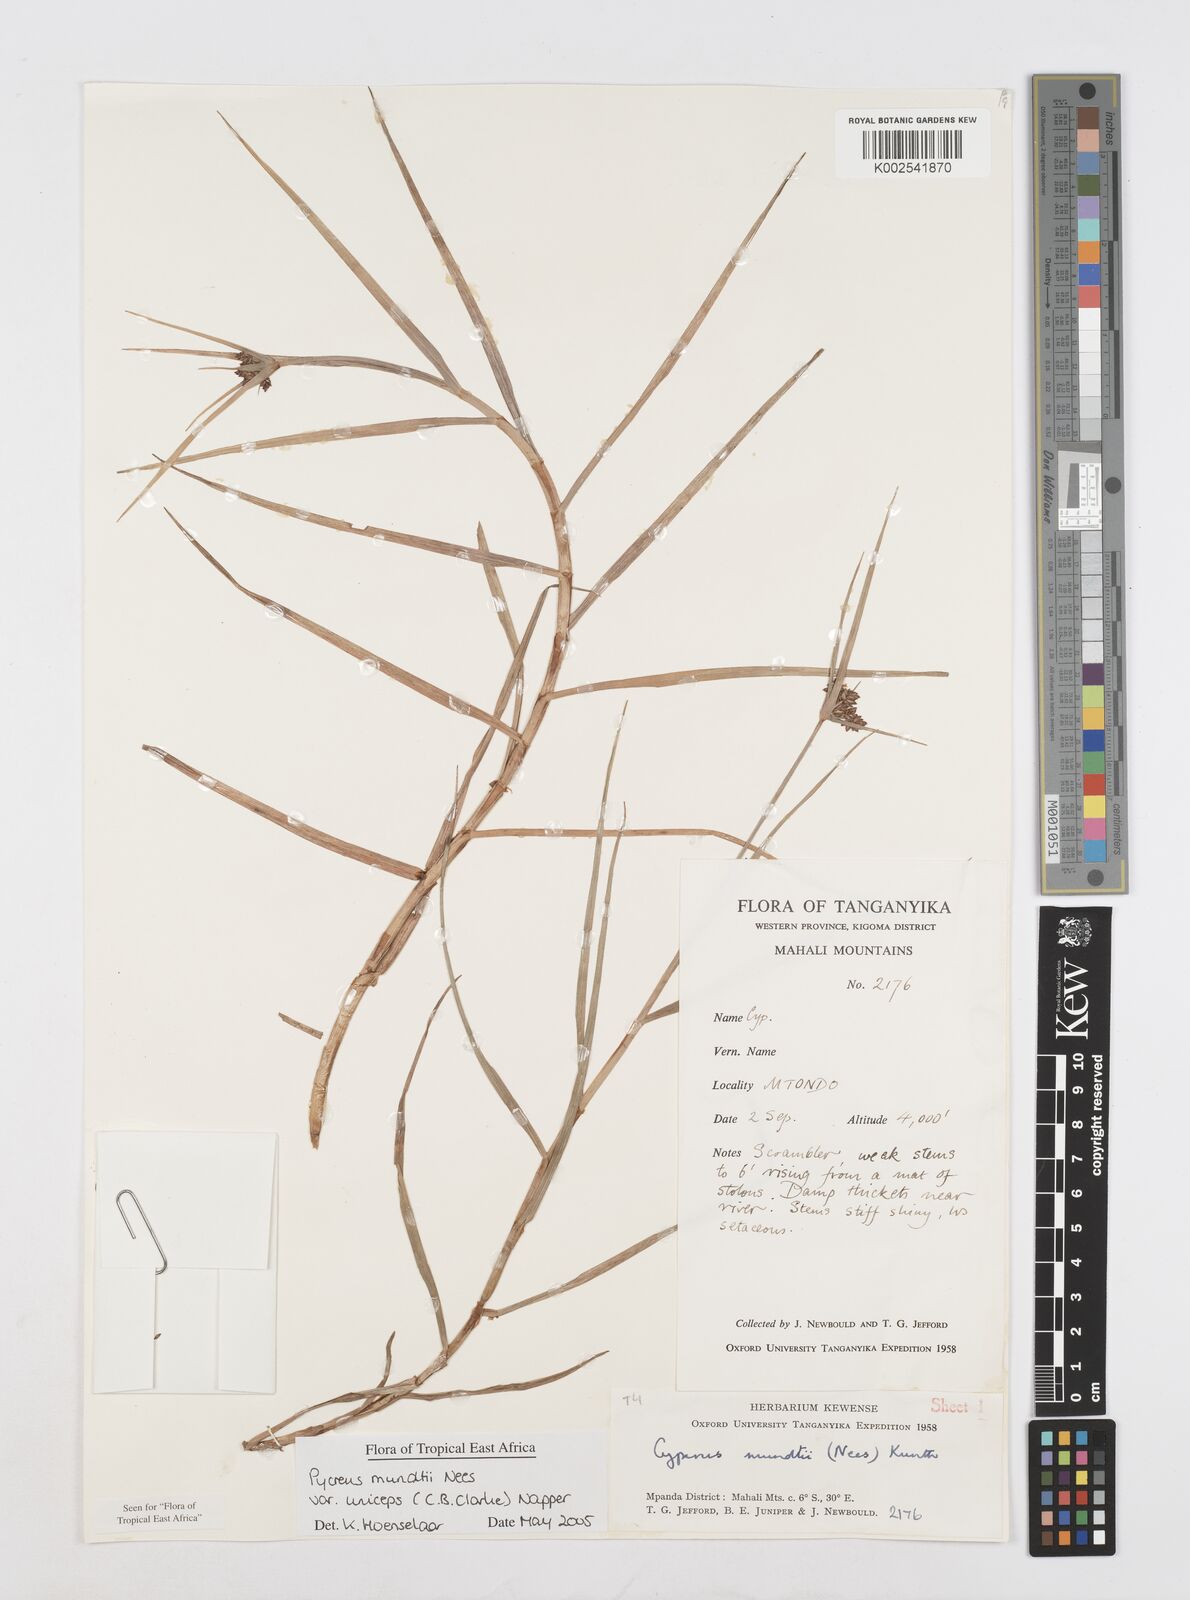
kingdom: Plantae
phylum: Tracheophyta
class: Liliopsida
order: Poales
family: Cyperaceae
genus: Cyperus
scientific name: Cyperus mundii
